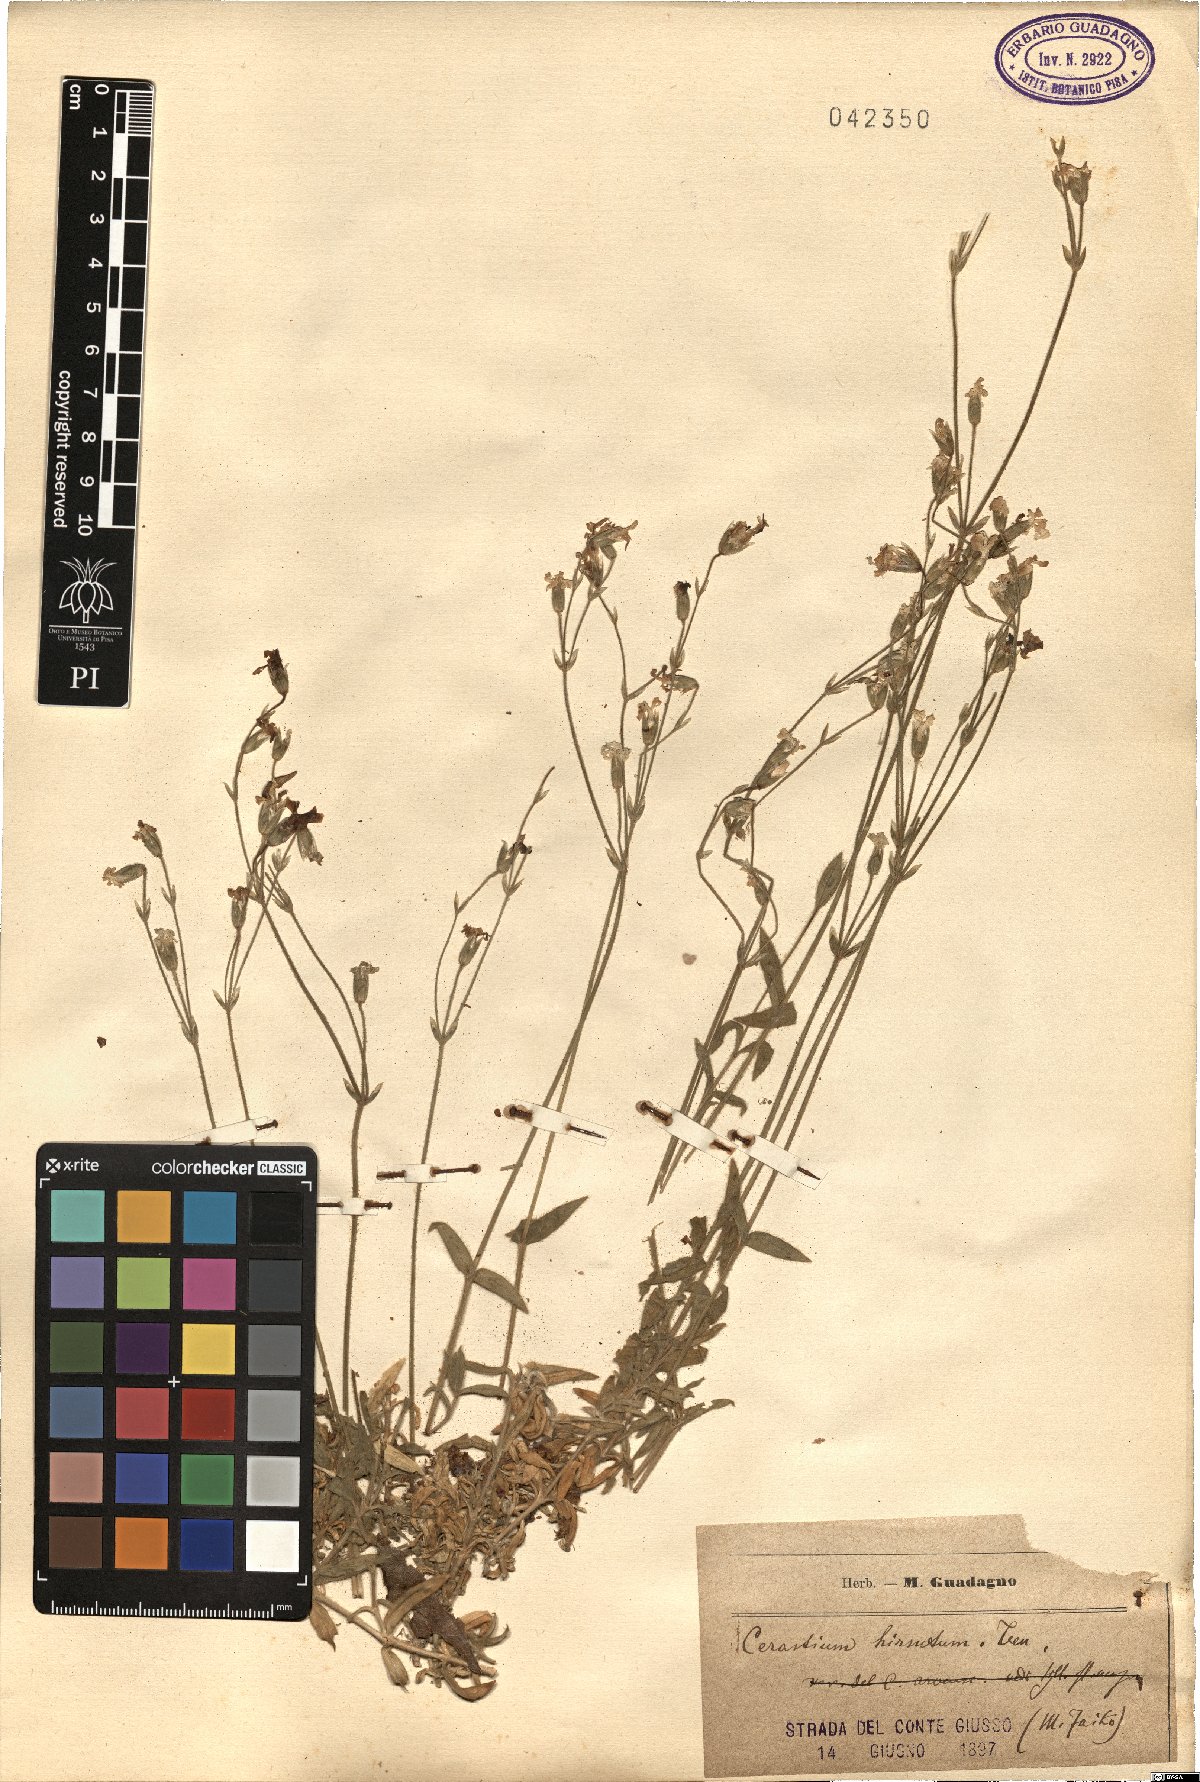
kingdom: Plantae
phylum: Tracheophyta
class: Magnoliopsida
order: Caryophyllales
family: Caryophyllaceae
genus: Cerastium
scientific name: Cerastium scaranii
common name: Italian mouse-ear
